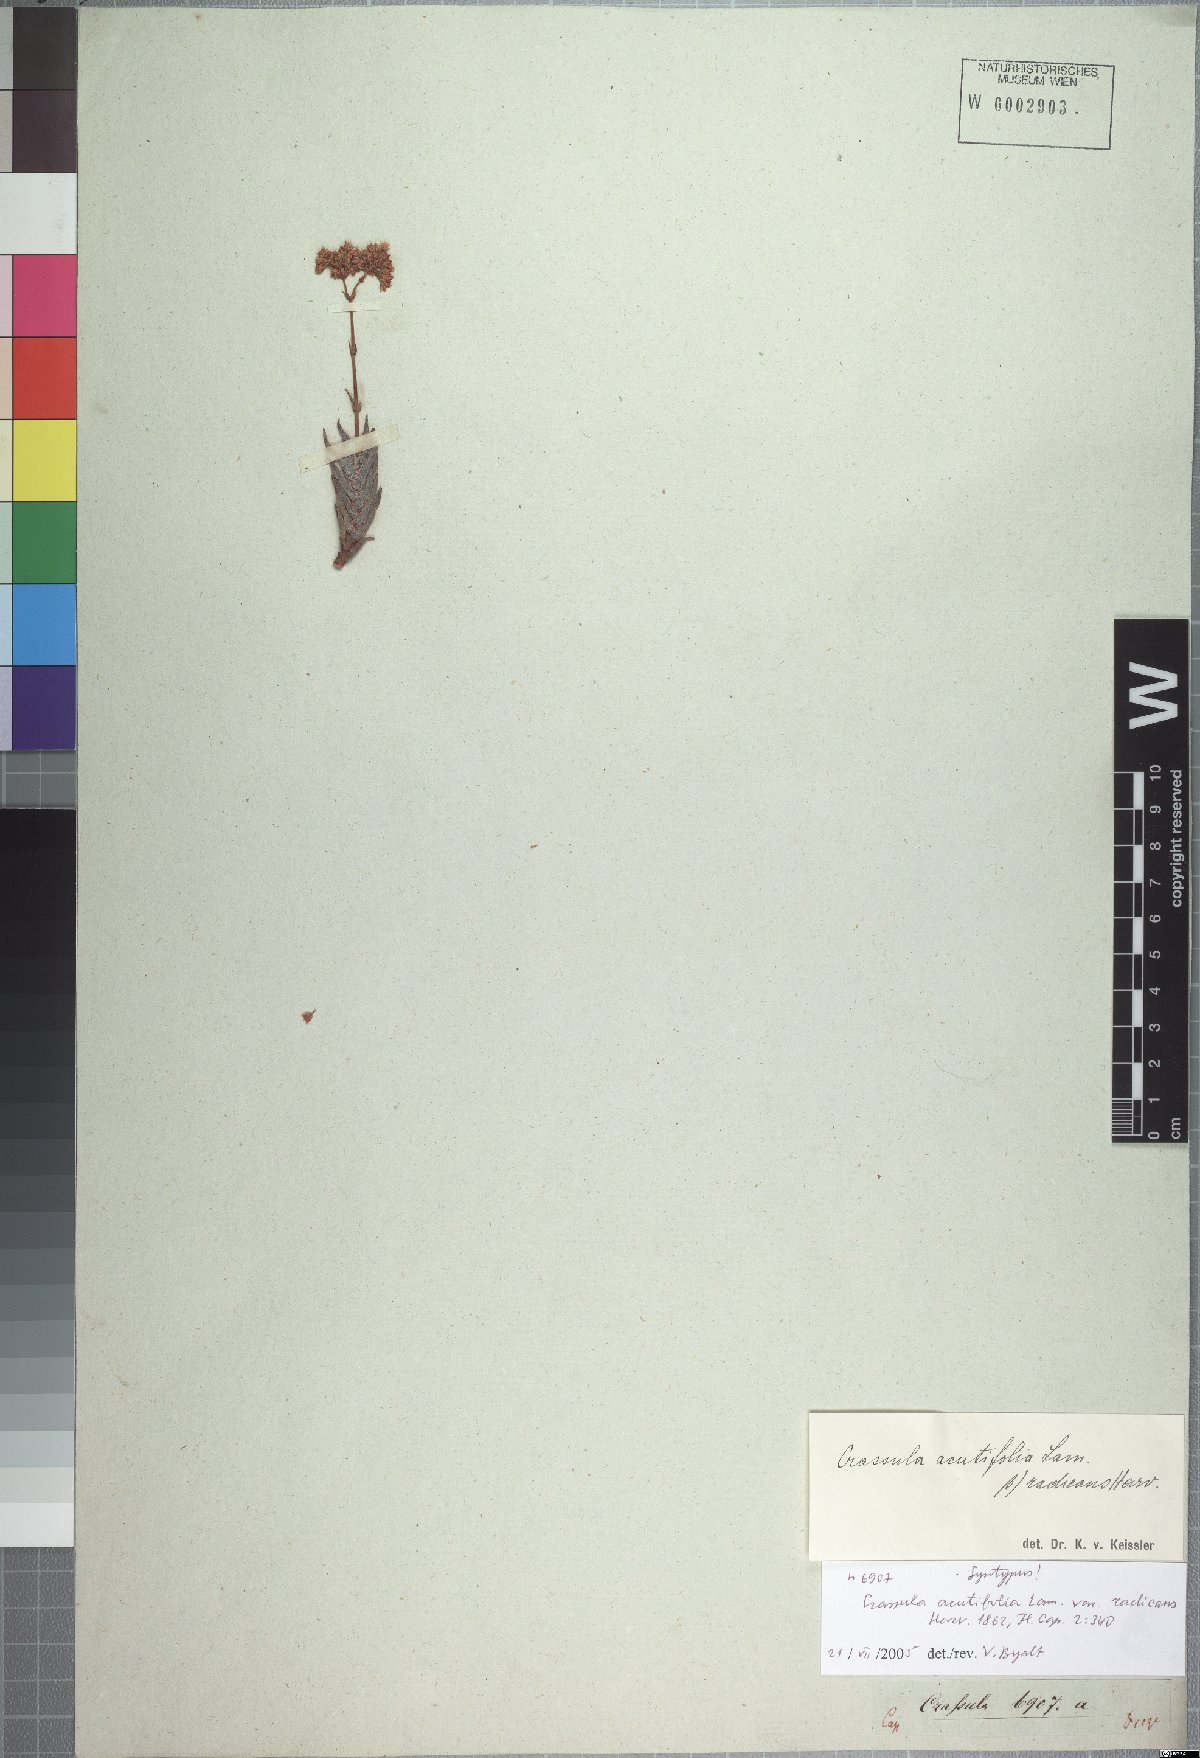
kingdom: Plantae
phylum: Tracheophyta
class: Magnoliopsida
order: Saxifragales
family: Crassulaceae
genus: Crassula
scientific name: Crassula tetragona
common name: Pygmyweed
